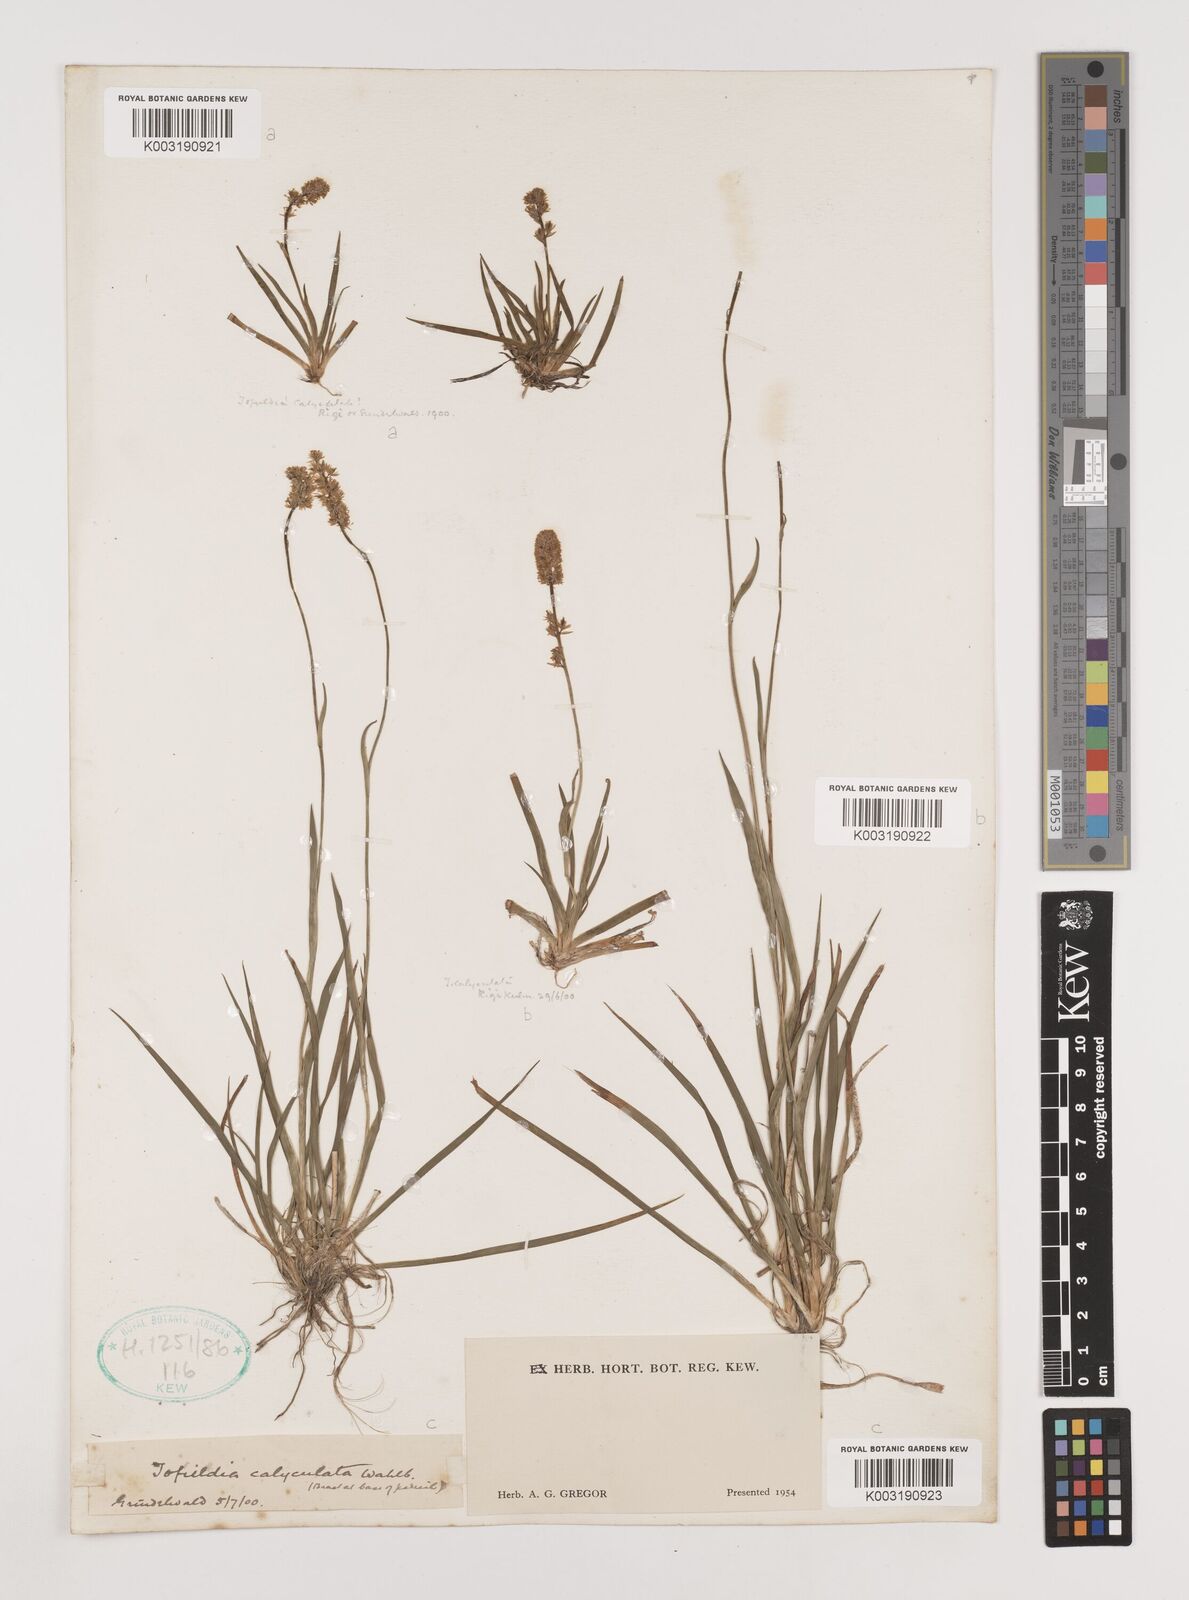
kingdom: Plantae
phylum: Tracheophyta
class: Liliopsida
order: Alismatales
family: Tofieldiaceae
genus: Tofieldia
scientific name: Tofieldia calyculata
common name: German-asphodel
